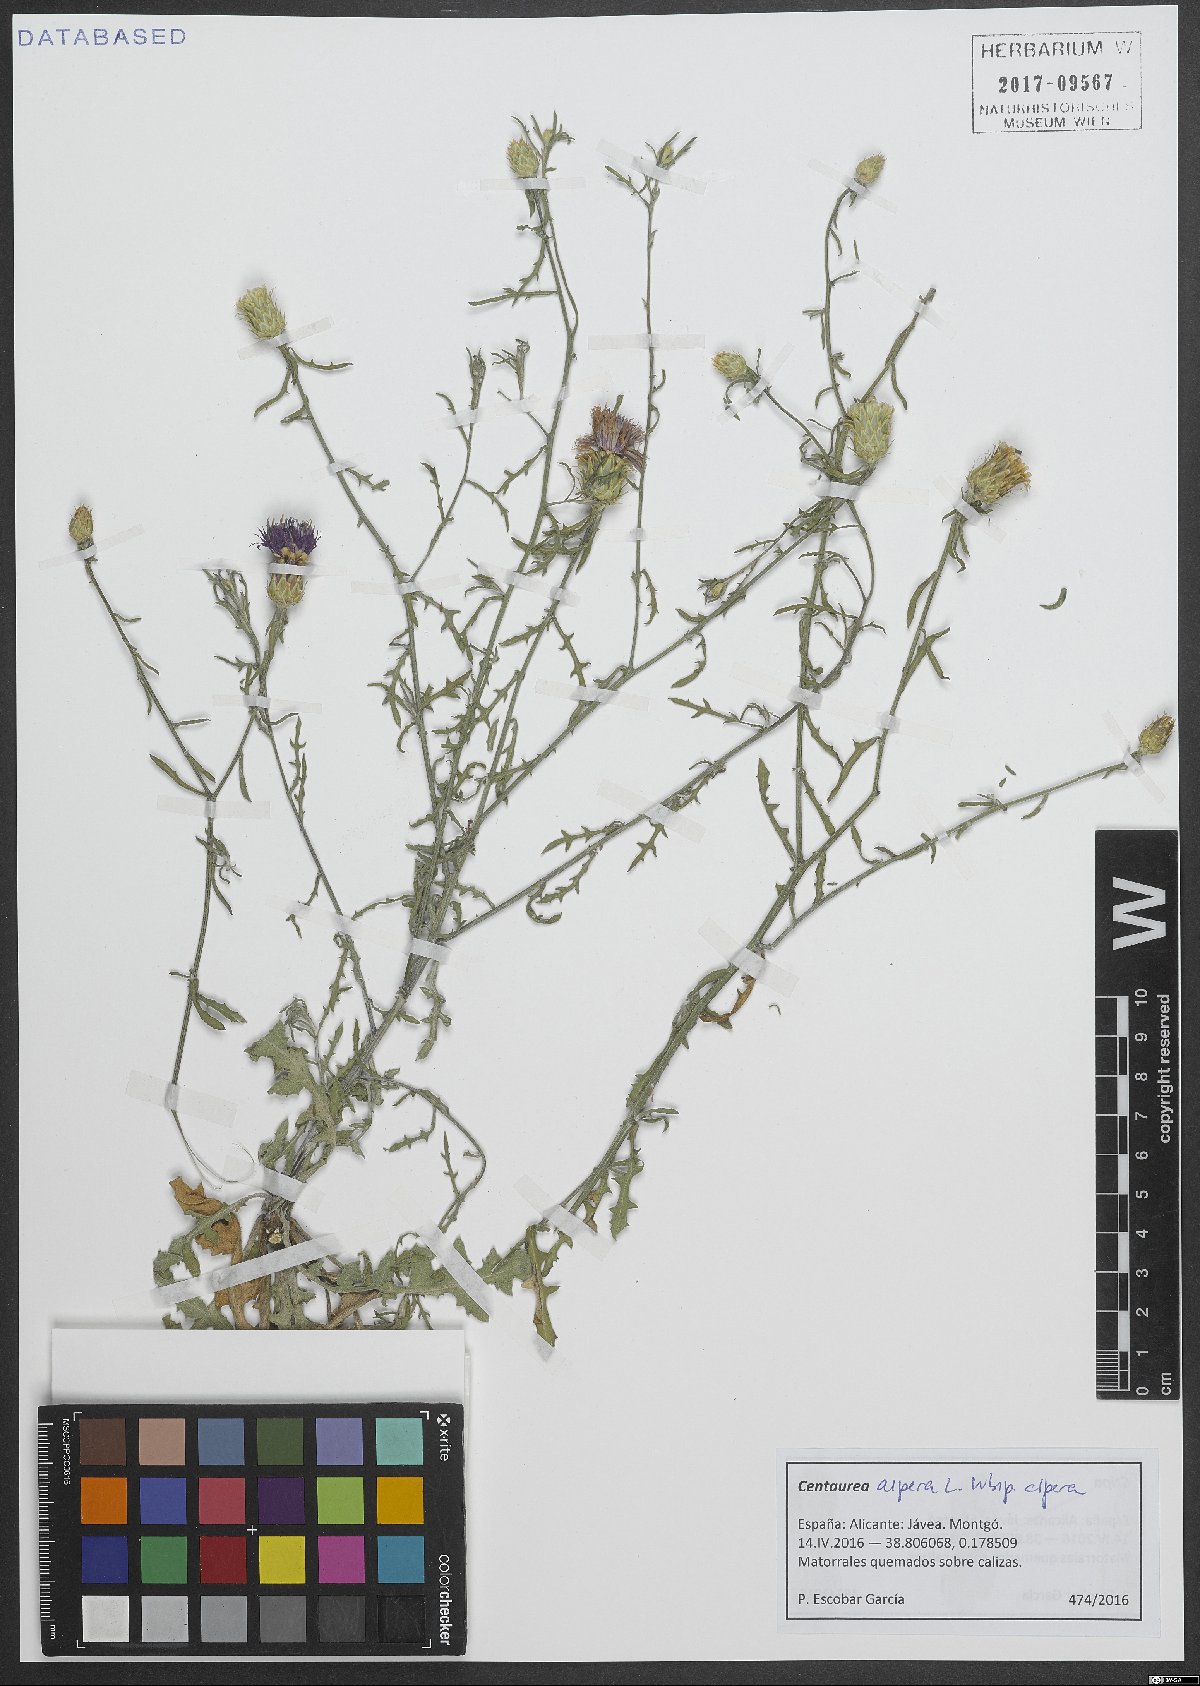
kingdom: Plantae
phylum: Tracheophyta
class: Magnoliopsida
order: Asterales
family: Asteraceae
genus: Centaurea
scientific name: Centaurea aspera
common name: Rough star-thistle
